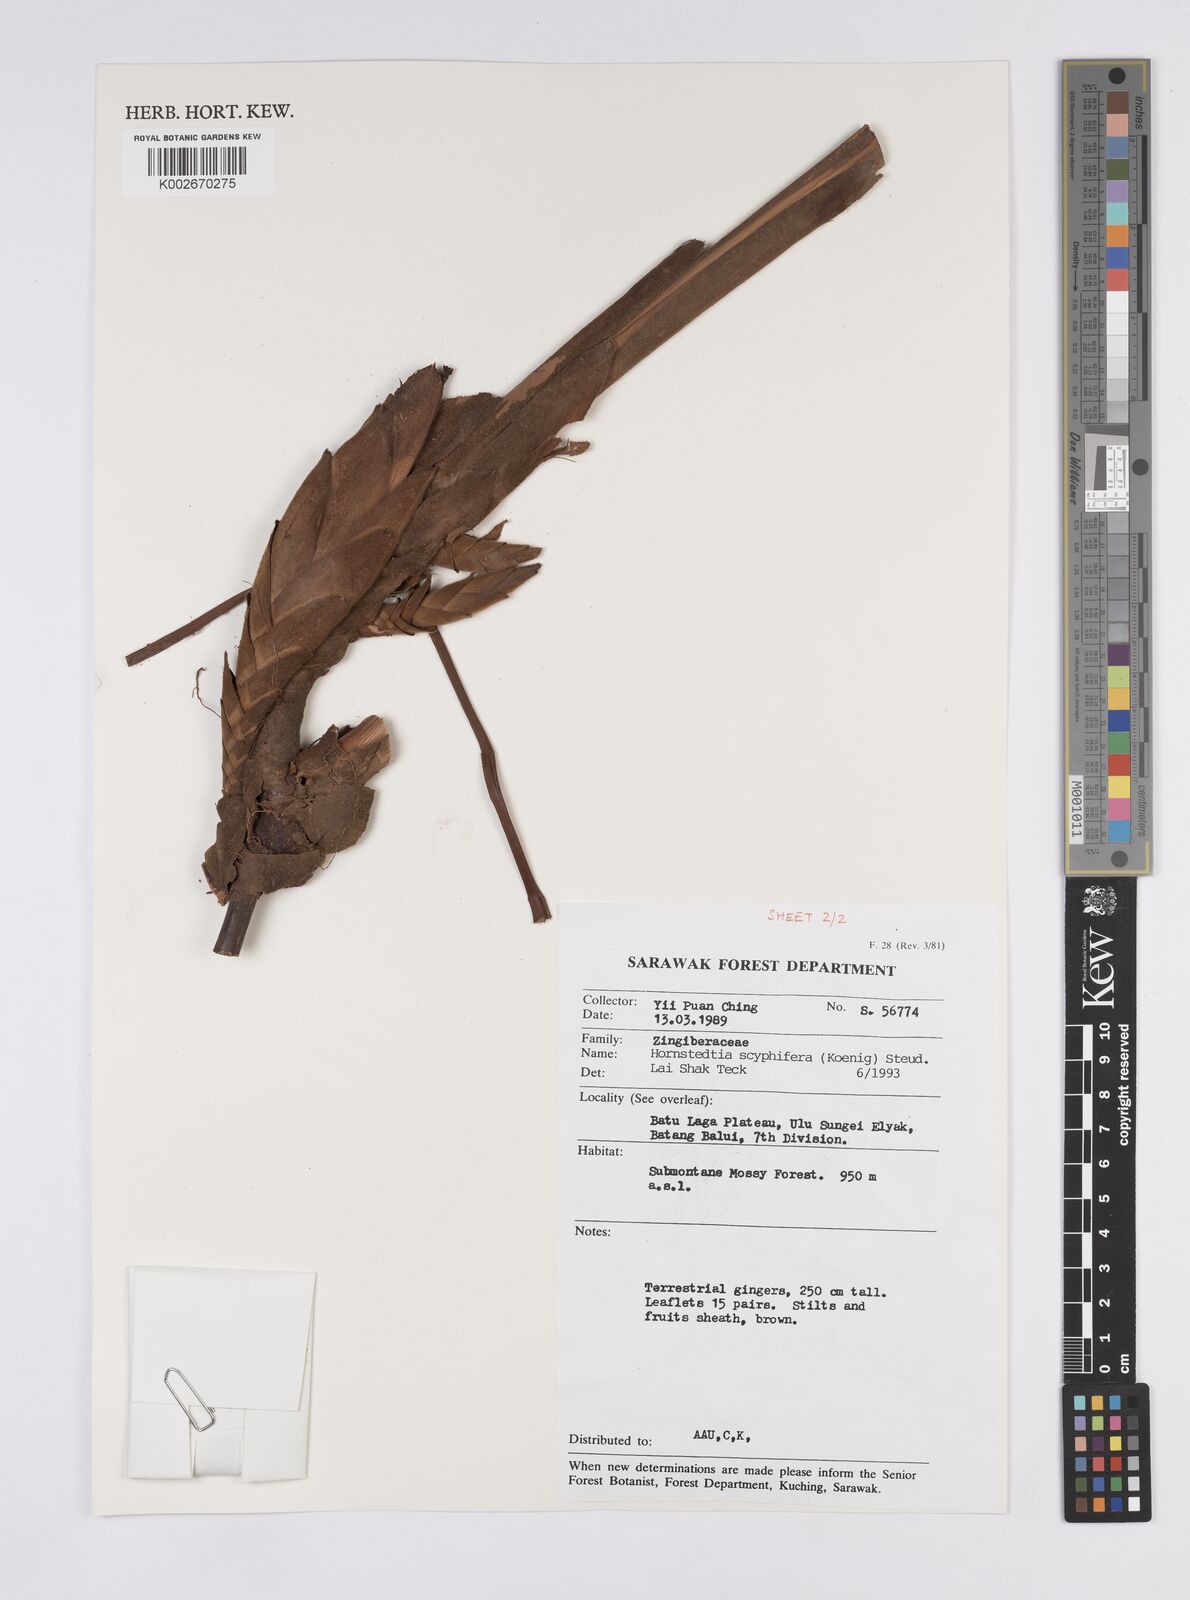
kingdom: Plantae
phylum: Tracheophyta
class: Liliopsida
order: Zingiberales
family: Zingiberaceae
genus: Hornstedtia
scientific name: Hornstedtia scyphifera
